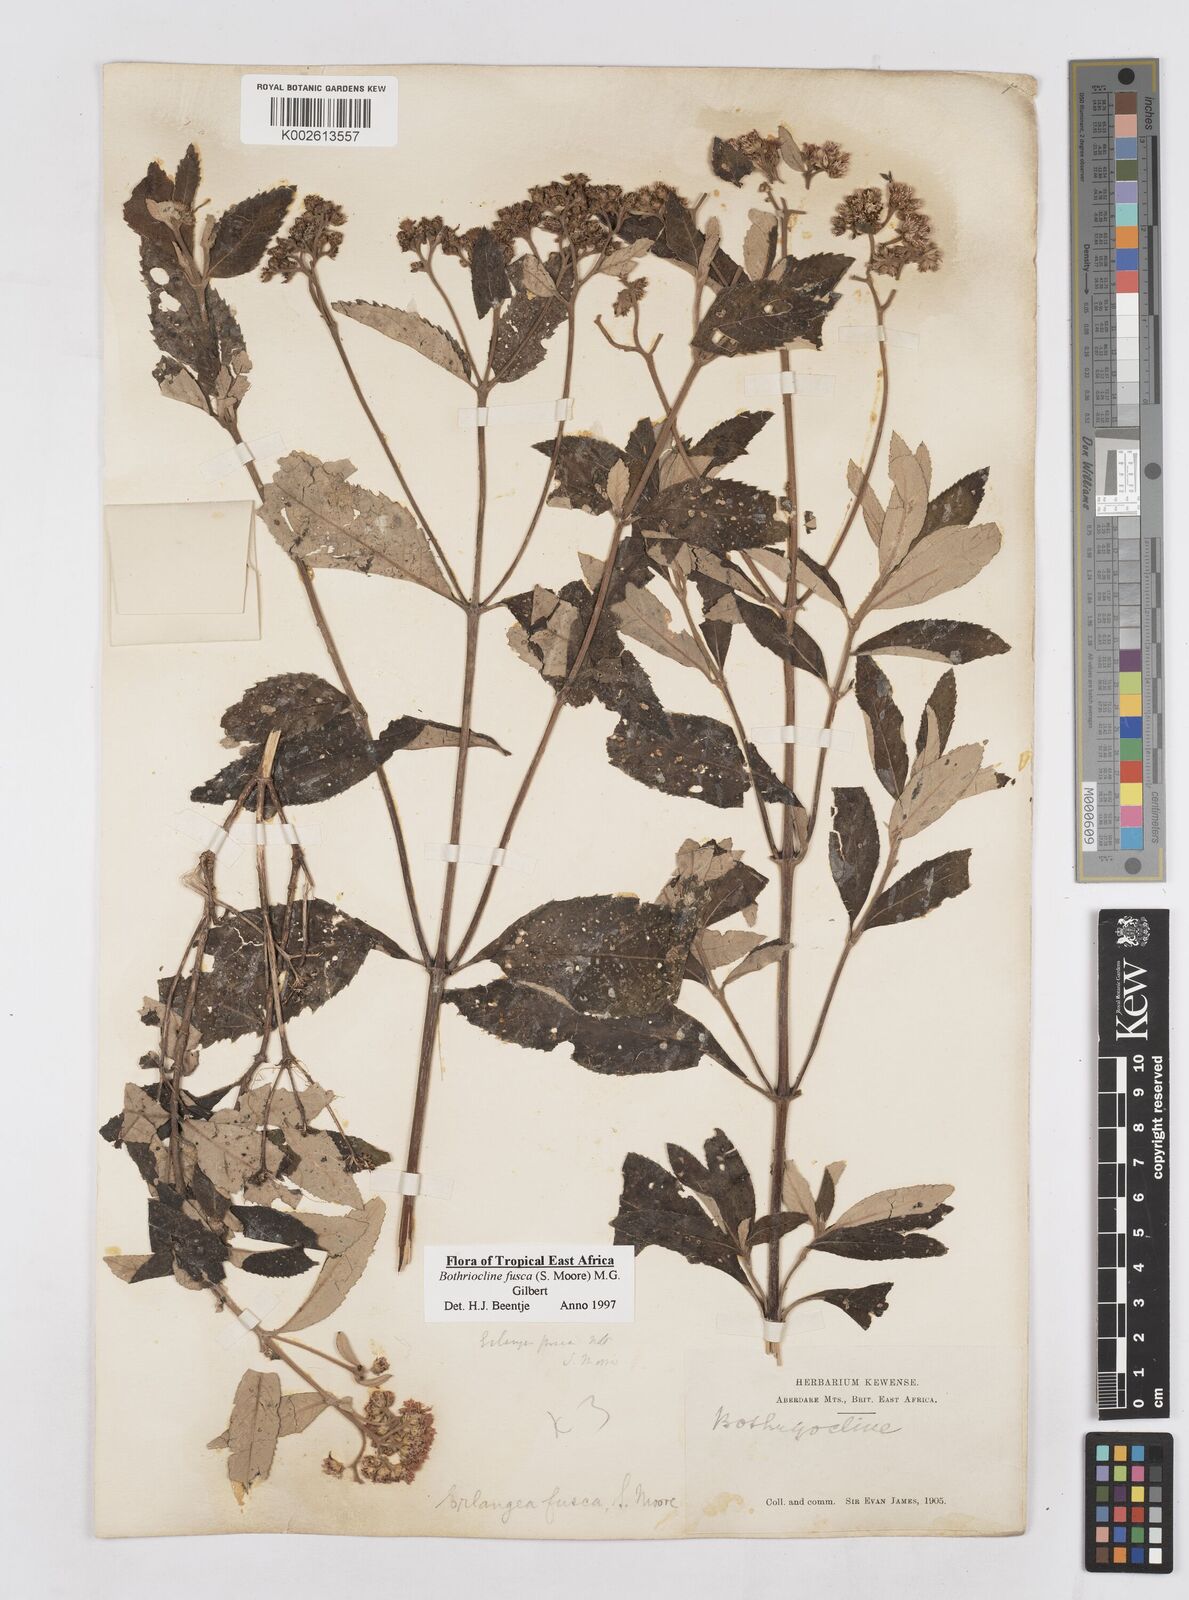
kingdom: Plantae
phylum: Tracheophyta
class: Magnoliopsida
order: Asterales
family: Asteraceae
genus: Bothriocline
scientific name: Bothriocline fusca
